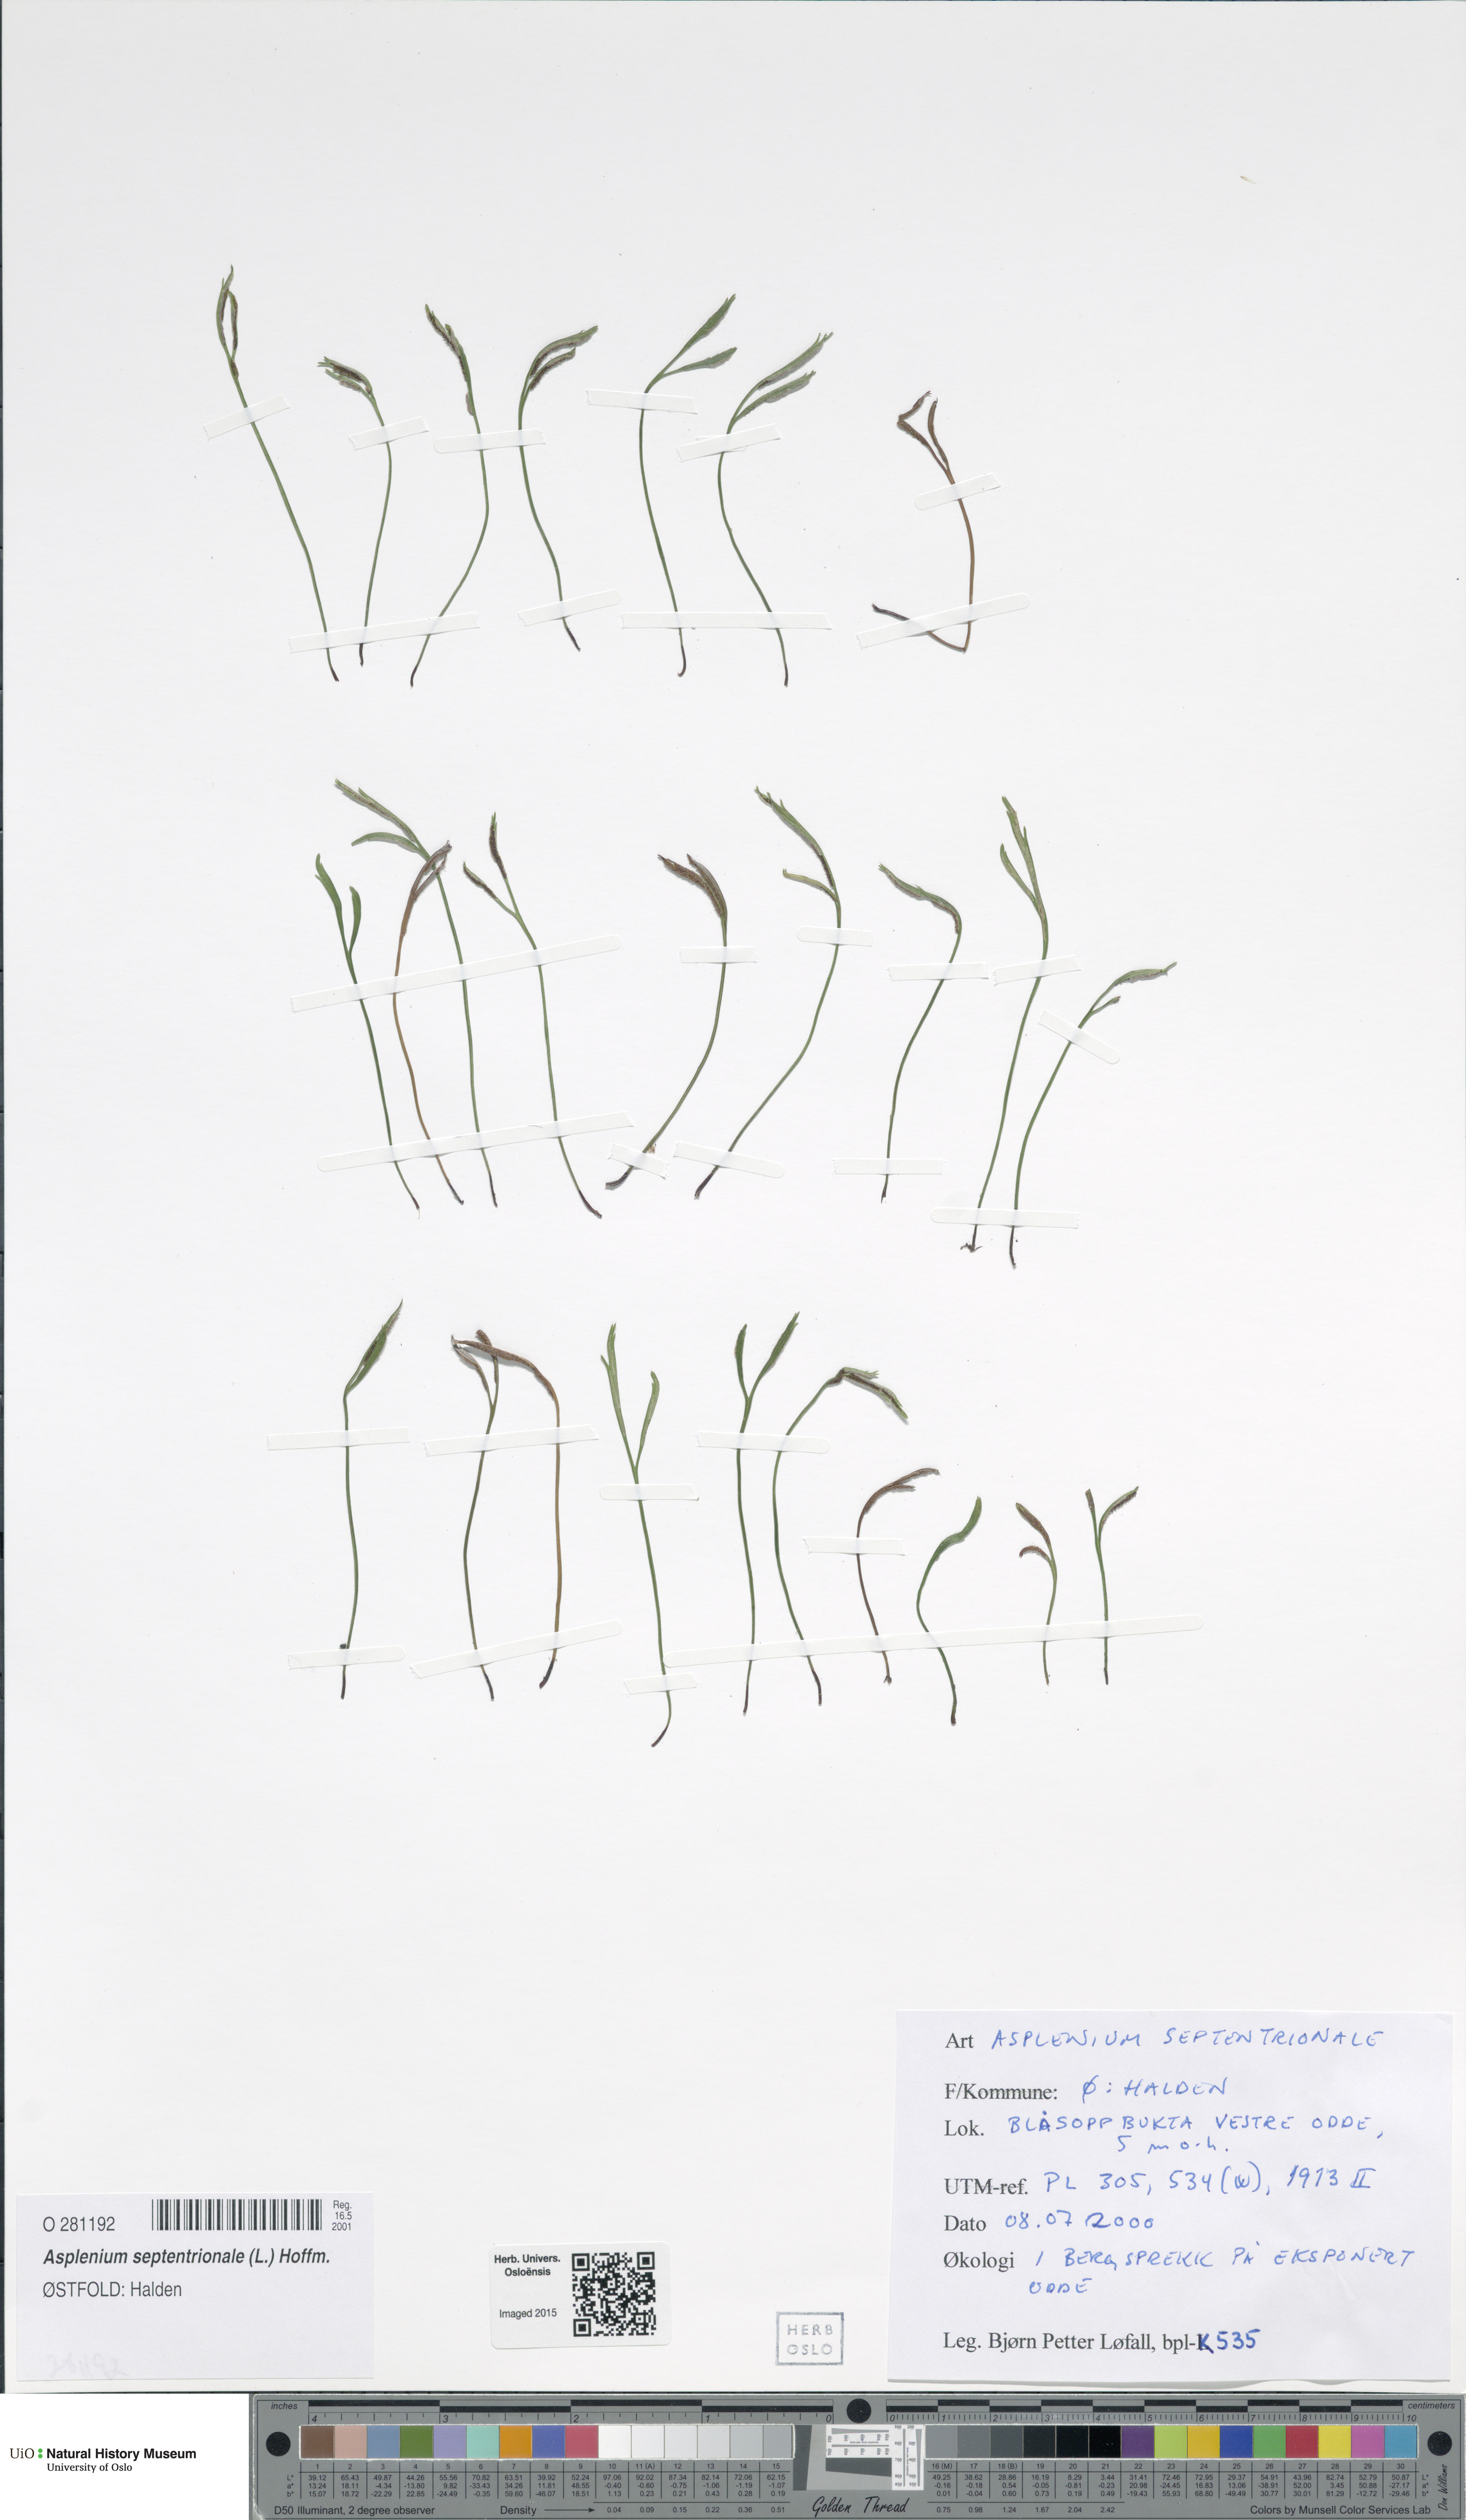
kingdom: Plantae
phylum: Tracheophyta
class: Polypodiopsida
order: Polypodiales
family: Aspleniaceae
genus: Asplenium
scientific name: Asplenium septentrionale
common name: Forked spleenwort
